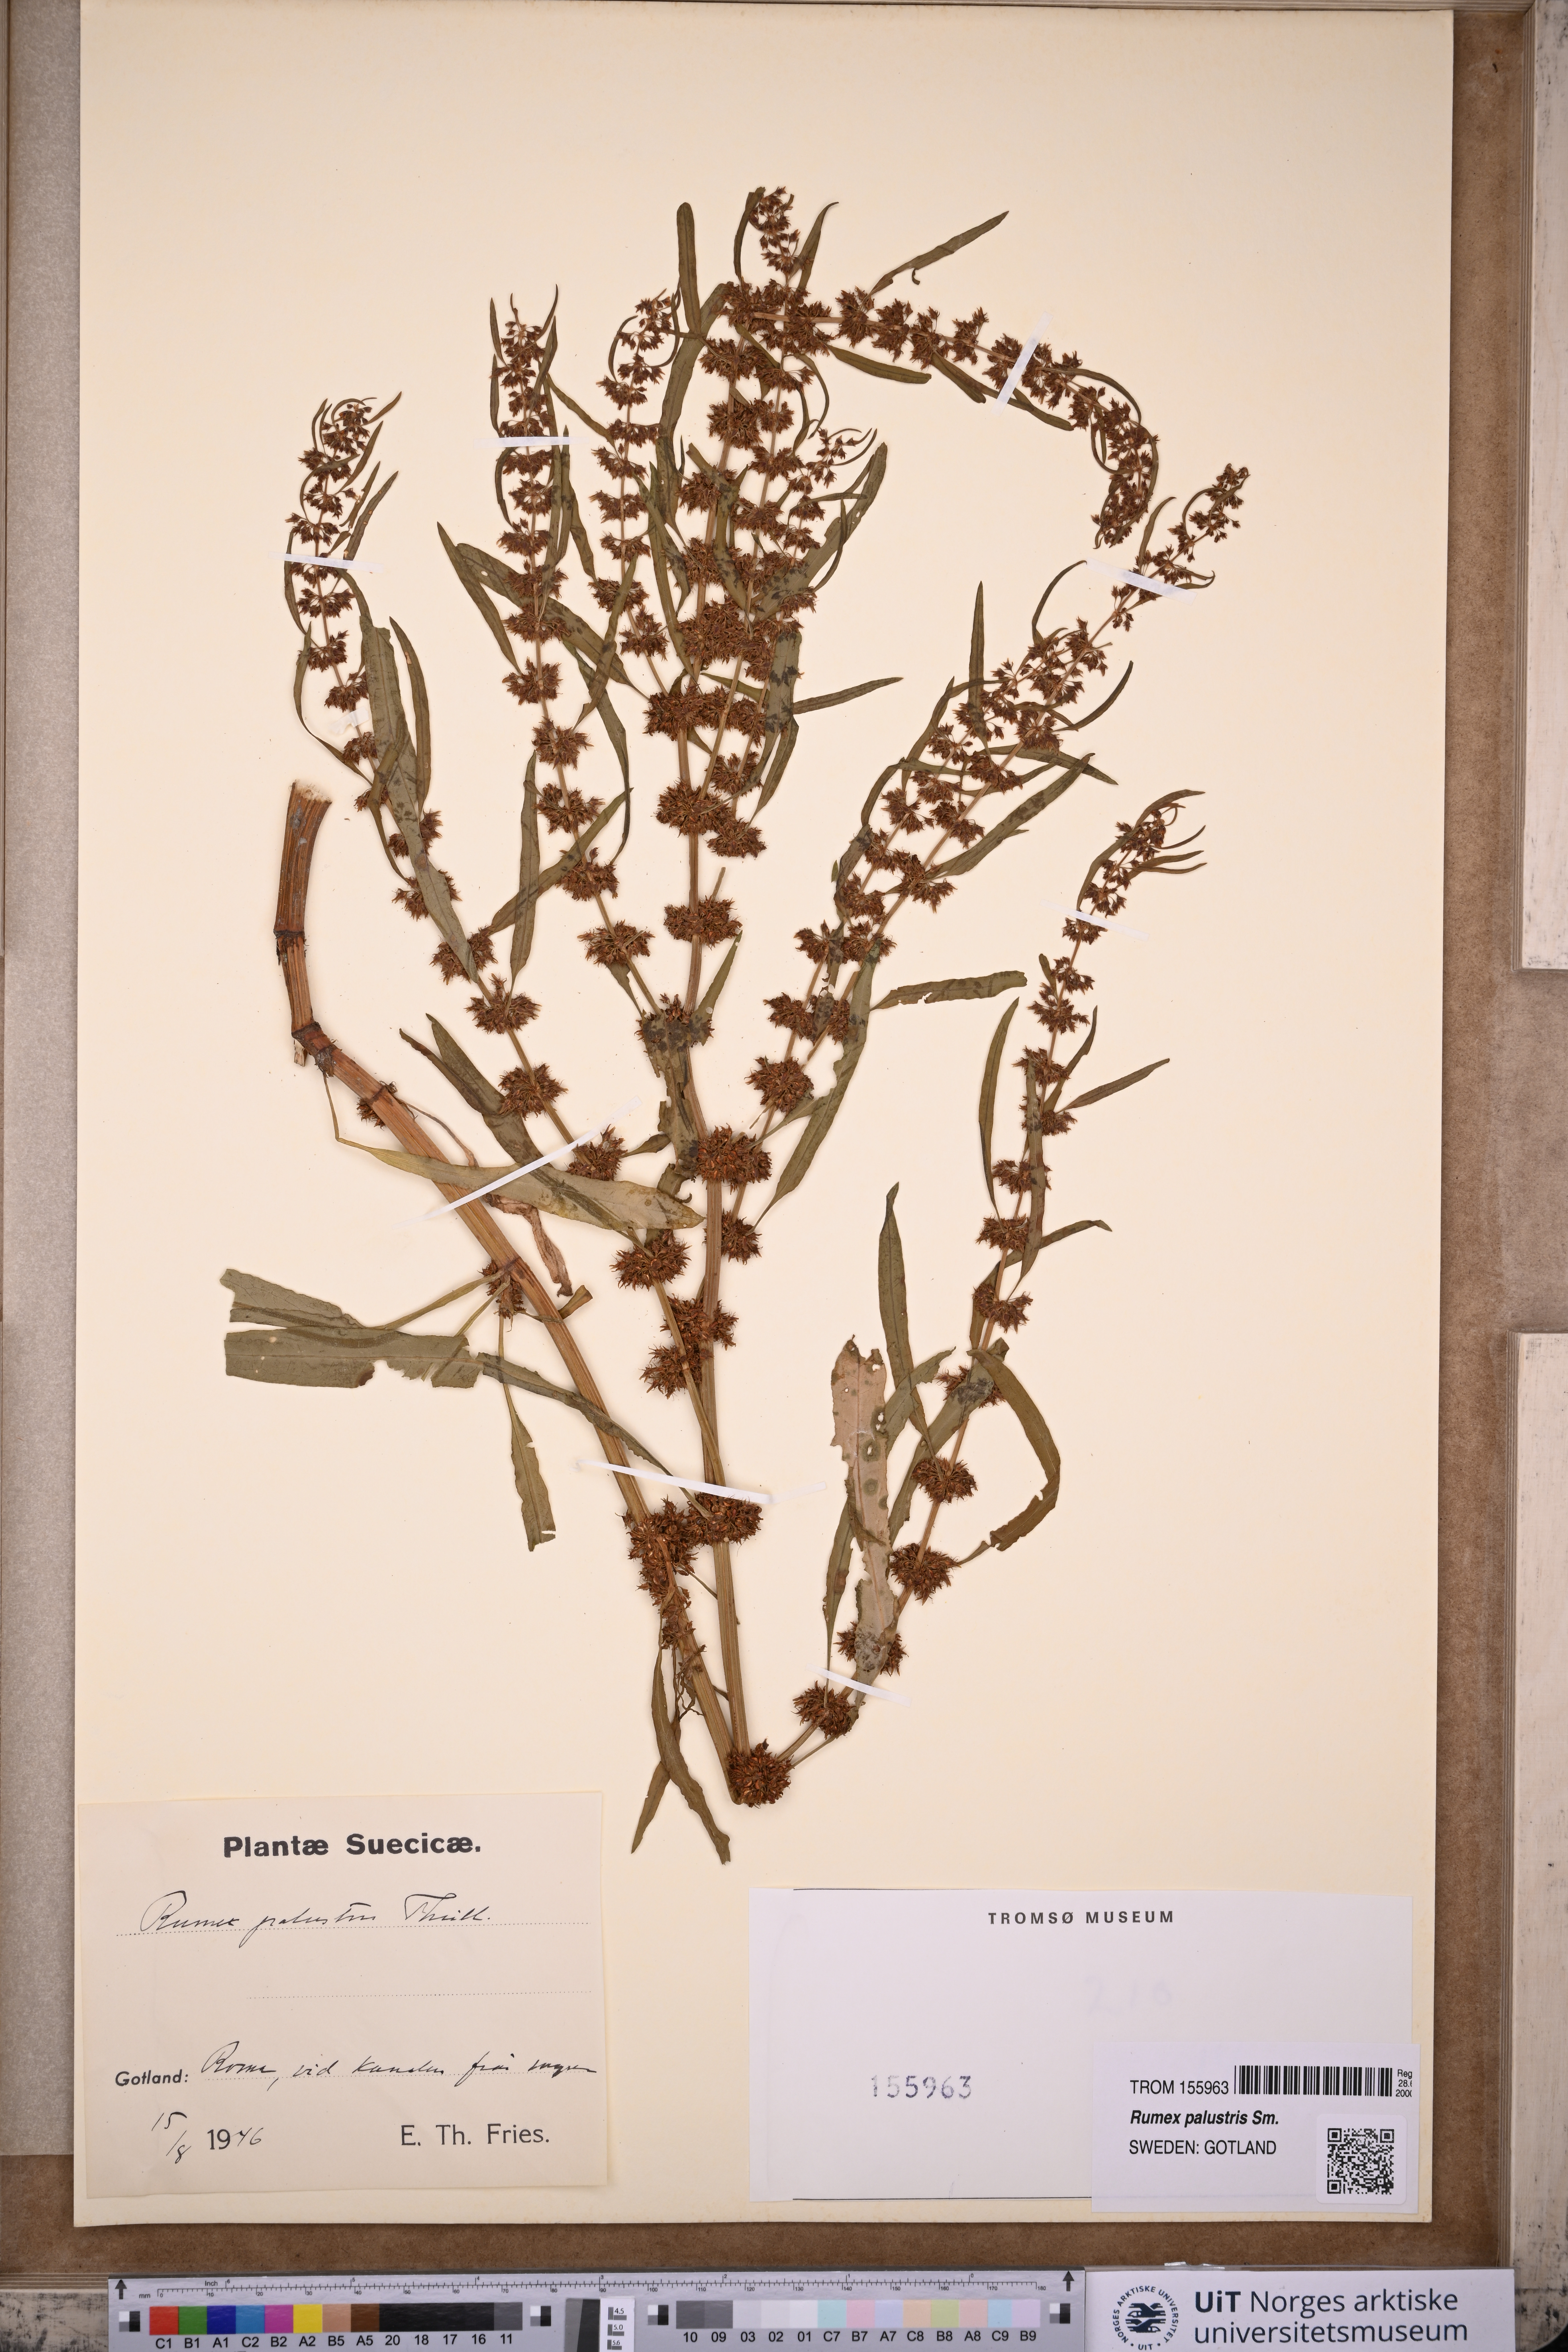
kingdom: Plantae
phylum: Tracheophyta
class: Magnoliopsida
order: Caryophyllales
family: Polygonaceae
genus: Rumex
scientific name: Rumex palustris
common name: Marsh dock
